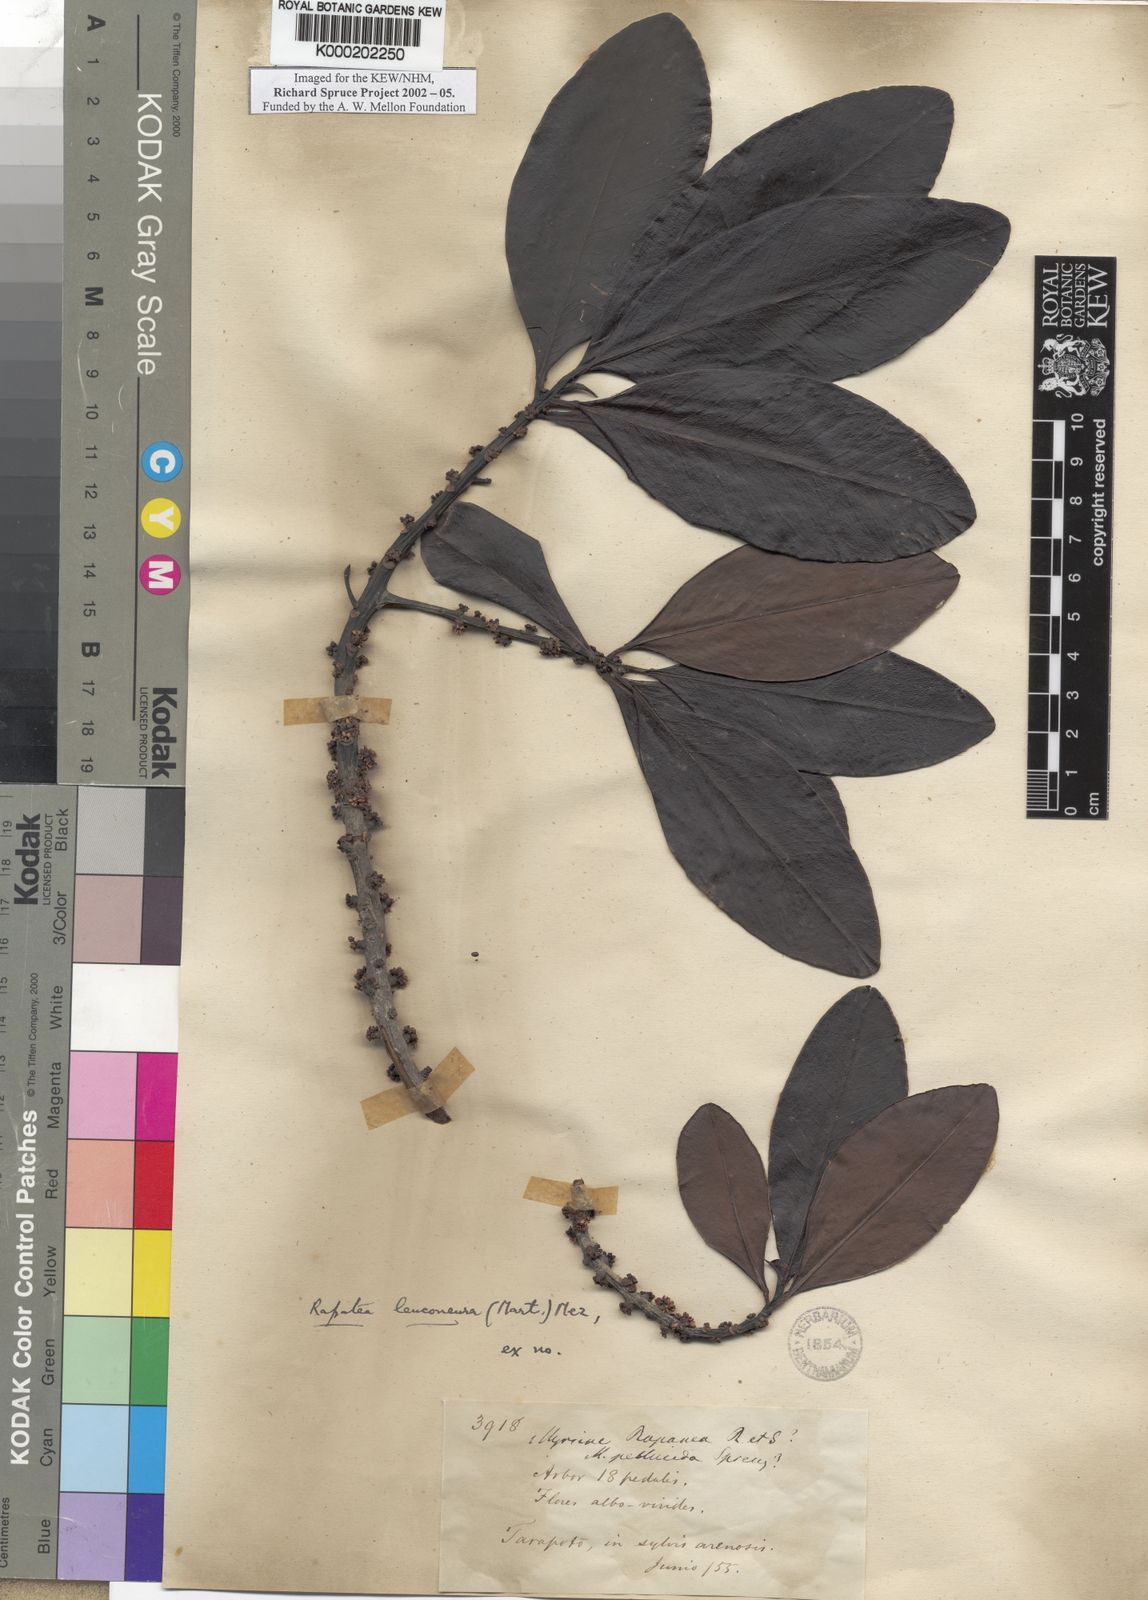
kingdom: Plantae
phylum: Tracheophyta
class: Magnoliopsida
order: Ericales
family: Primulaceae
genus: Myrsine
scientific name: Myrsine
